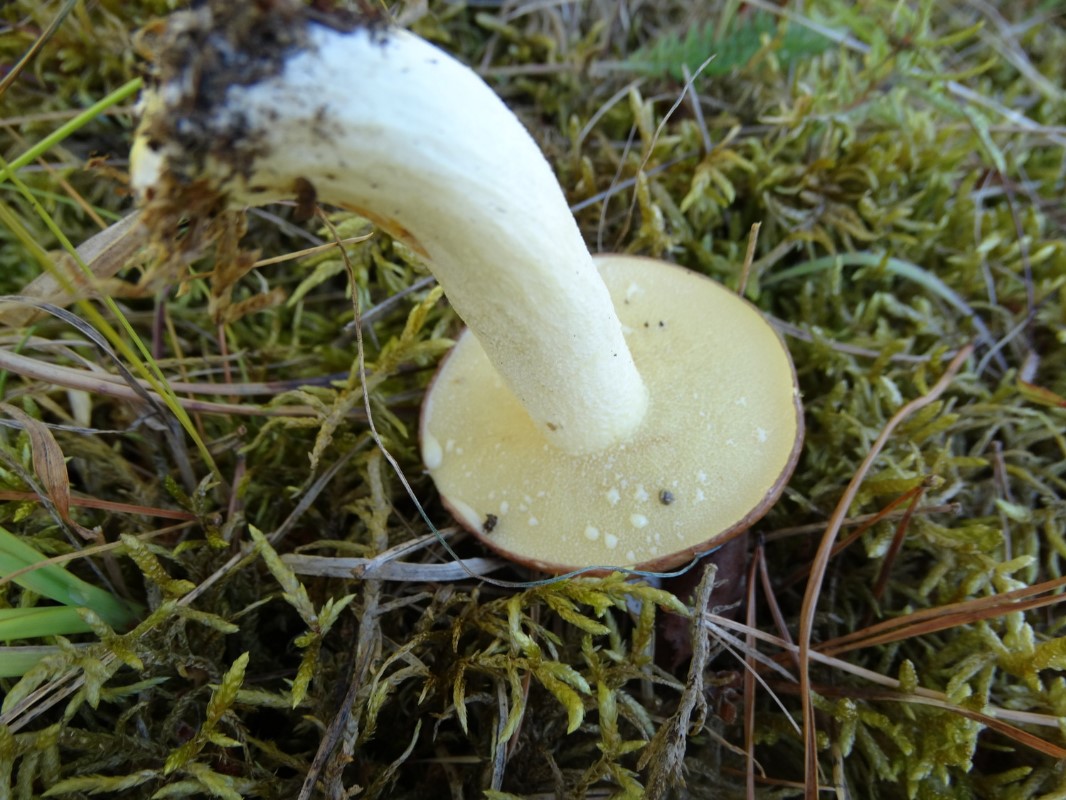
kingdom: Fungi
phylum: Basidiomycota
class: Agaricomycetes
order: Boletales
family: Suillaceae
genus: Suillus
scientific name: Suillus granulatus
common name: kornet slimrørhat
